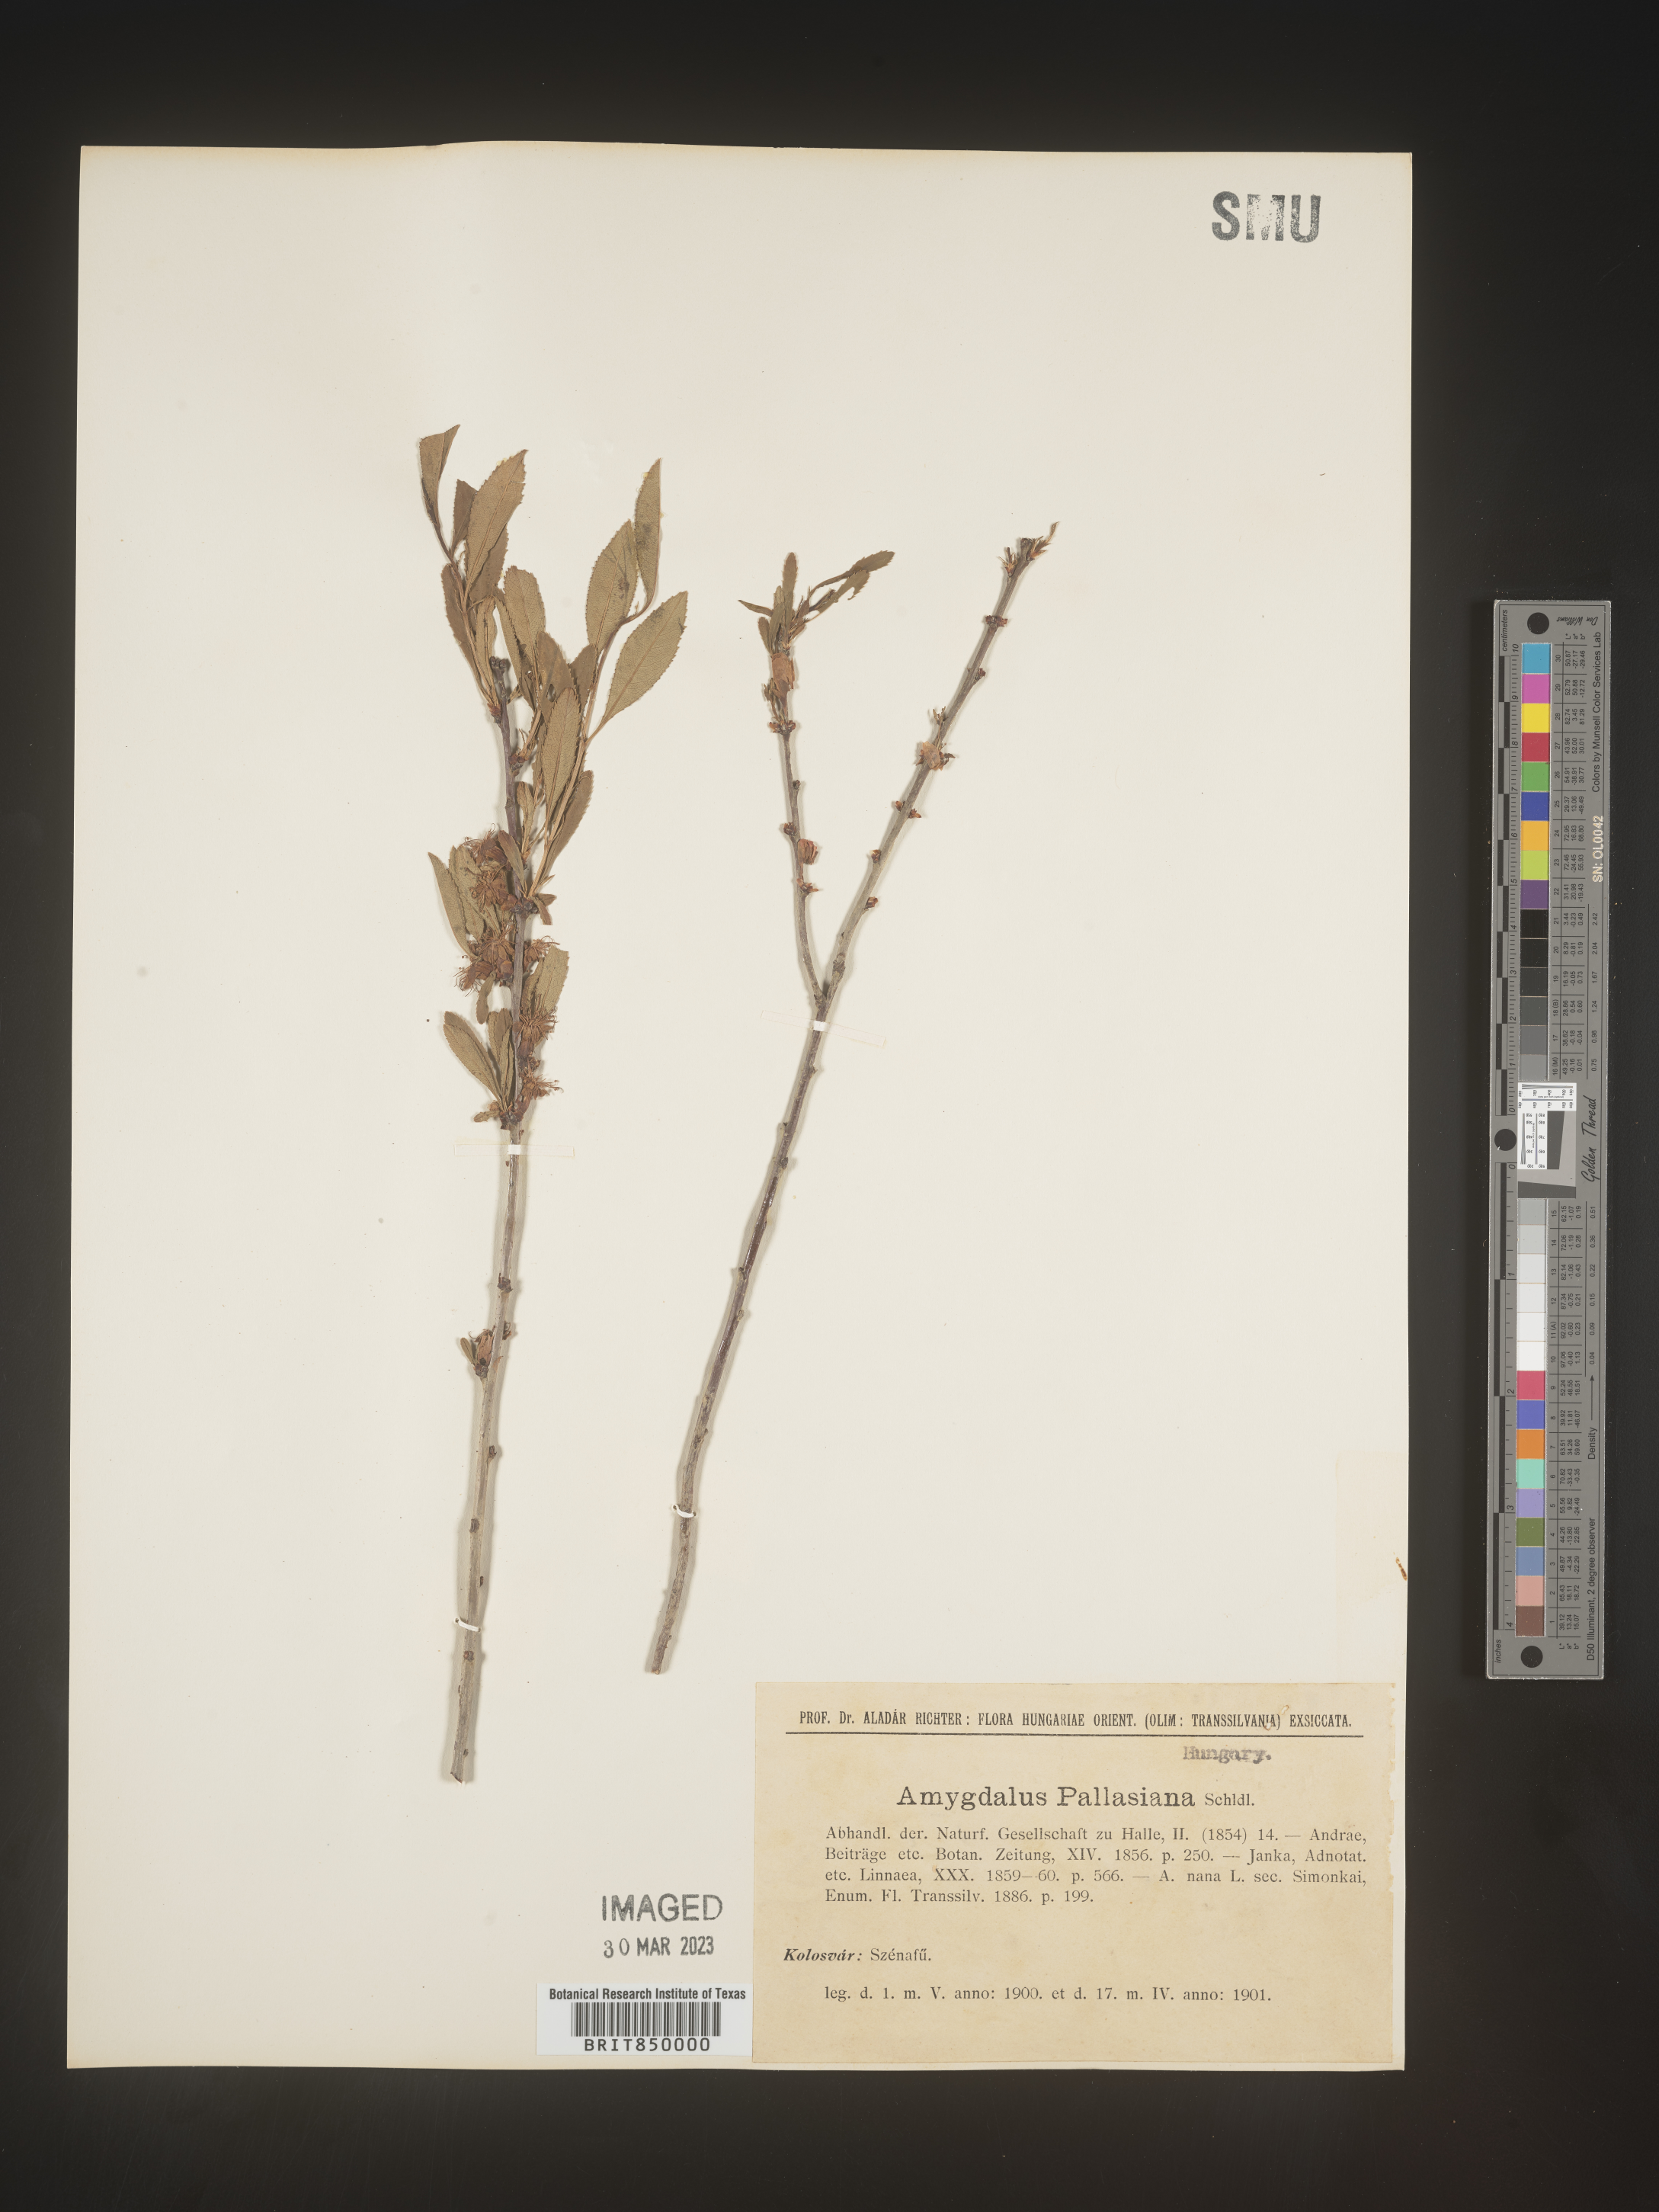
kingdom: Plantae
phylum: Tracheophyta
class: Magnoliopsida
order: Rosales
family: Rosaceae
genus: Prunus
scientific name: Prunus
